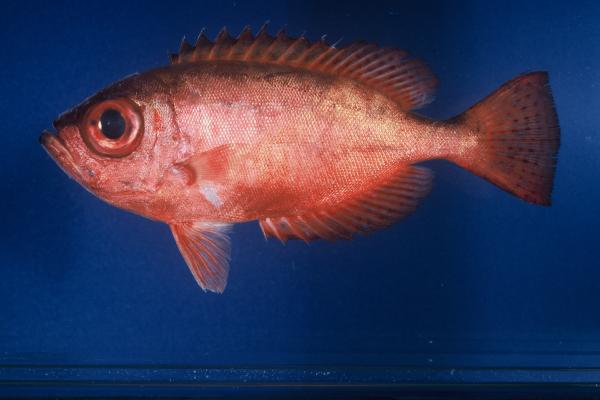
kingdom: Animalia
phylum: Chordata
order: Perciformes
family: Priacanthidae
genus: Heteropriacanthus
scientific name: Heteropriacanthus cruentatus
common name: Glasseye
